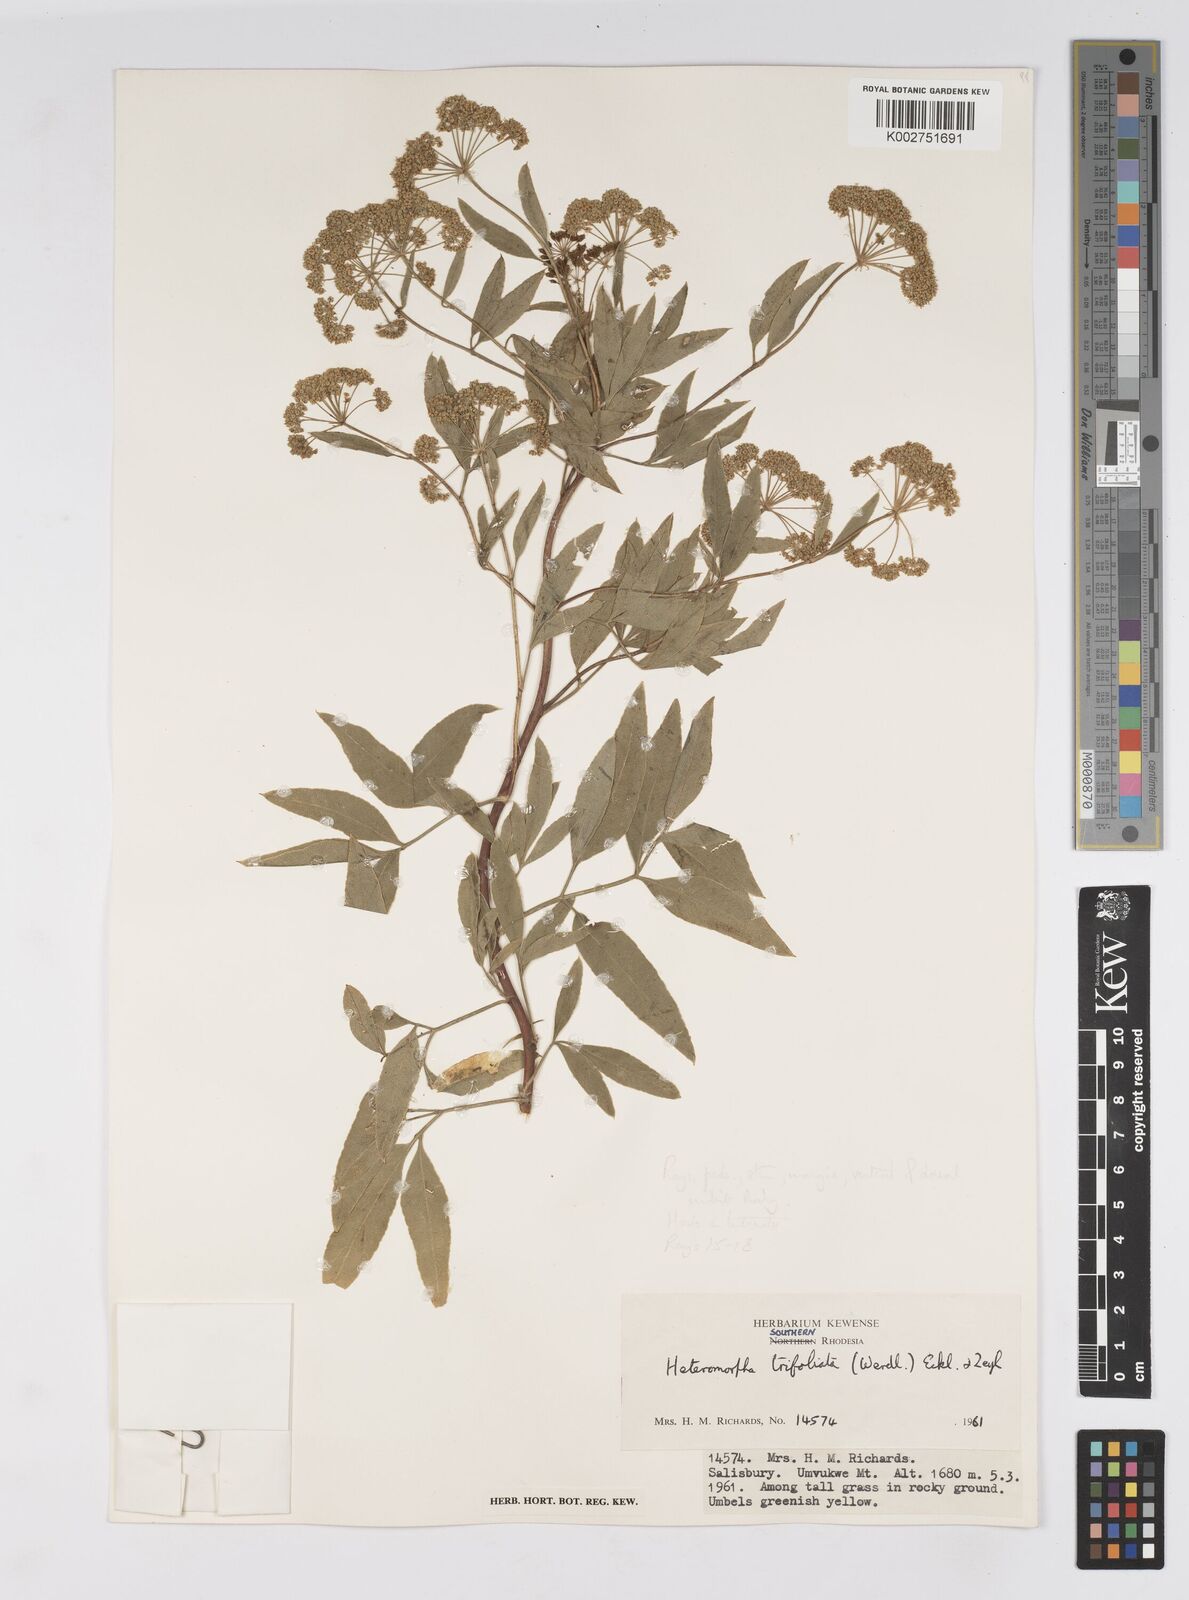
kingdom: Plantae
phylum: Tracheophyta
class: Magnoliopsida
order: Apiales
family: Apiaceae
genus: Heteromorpha
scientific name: Heteromorpha stenophylla
